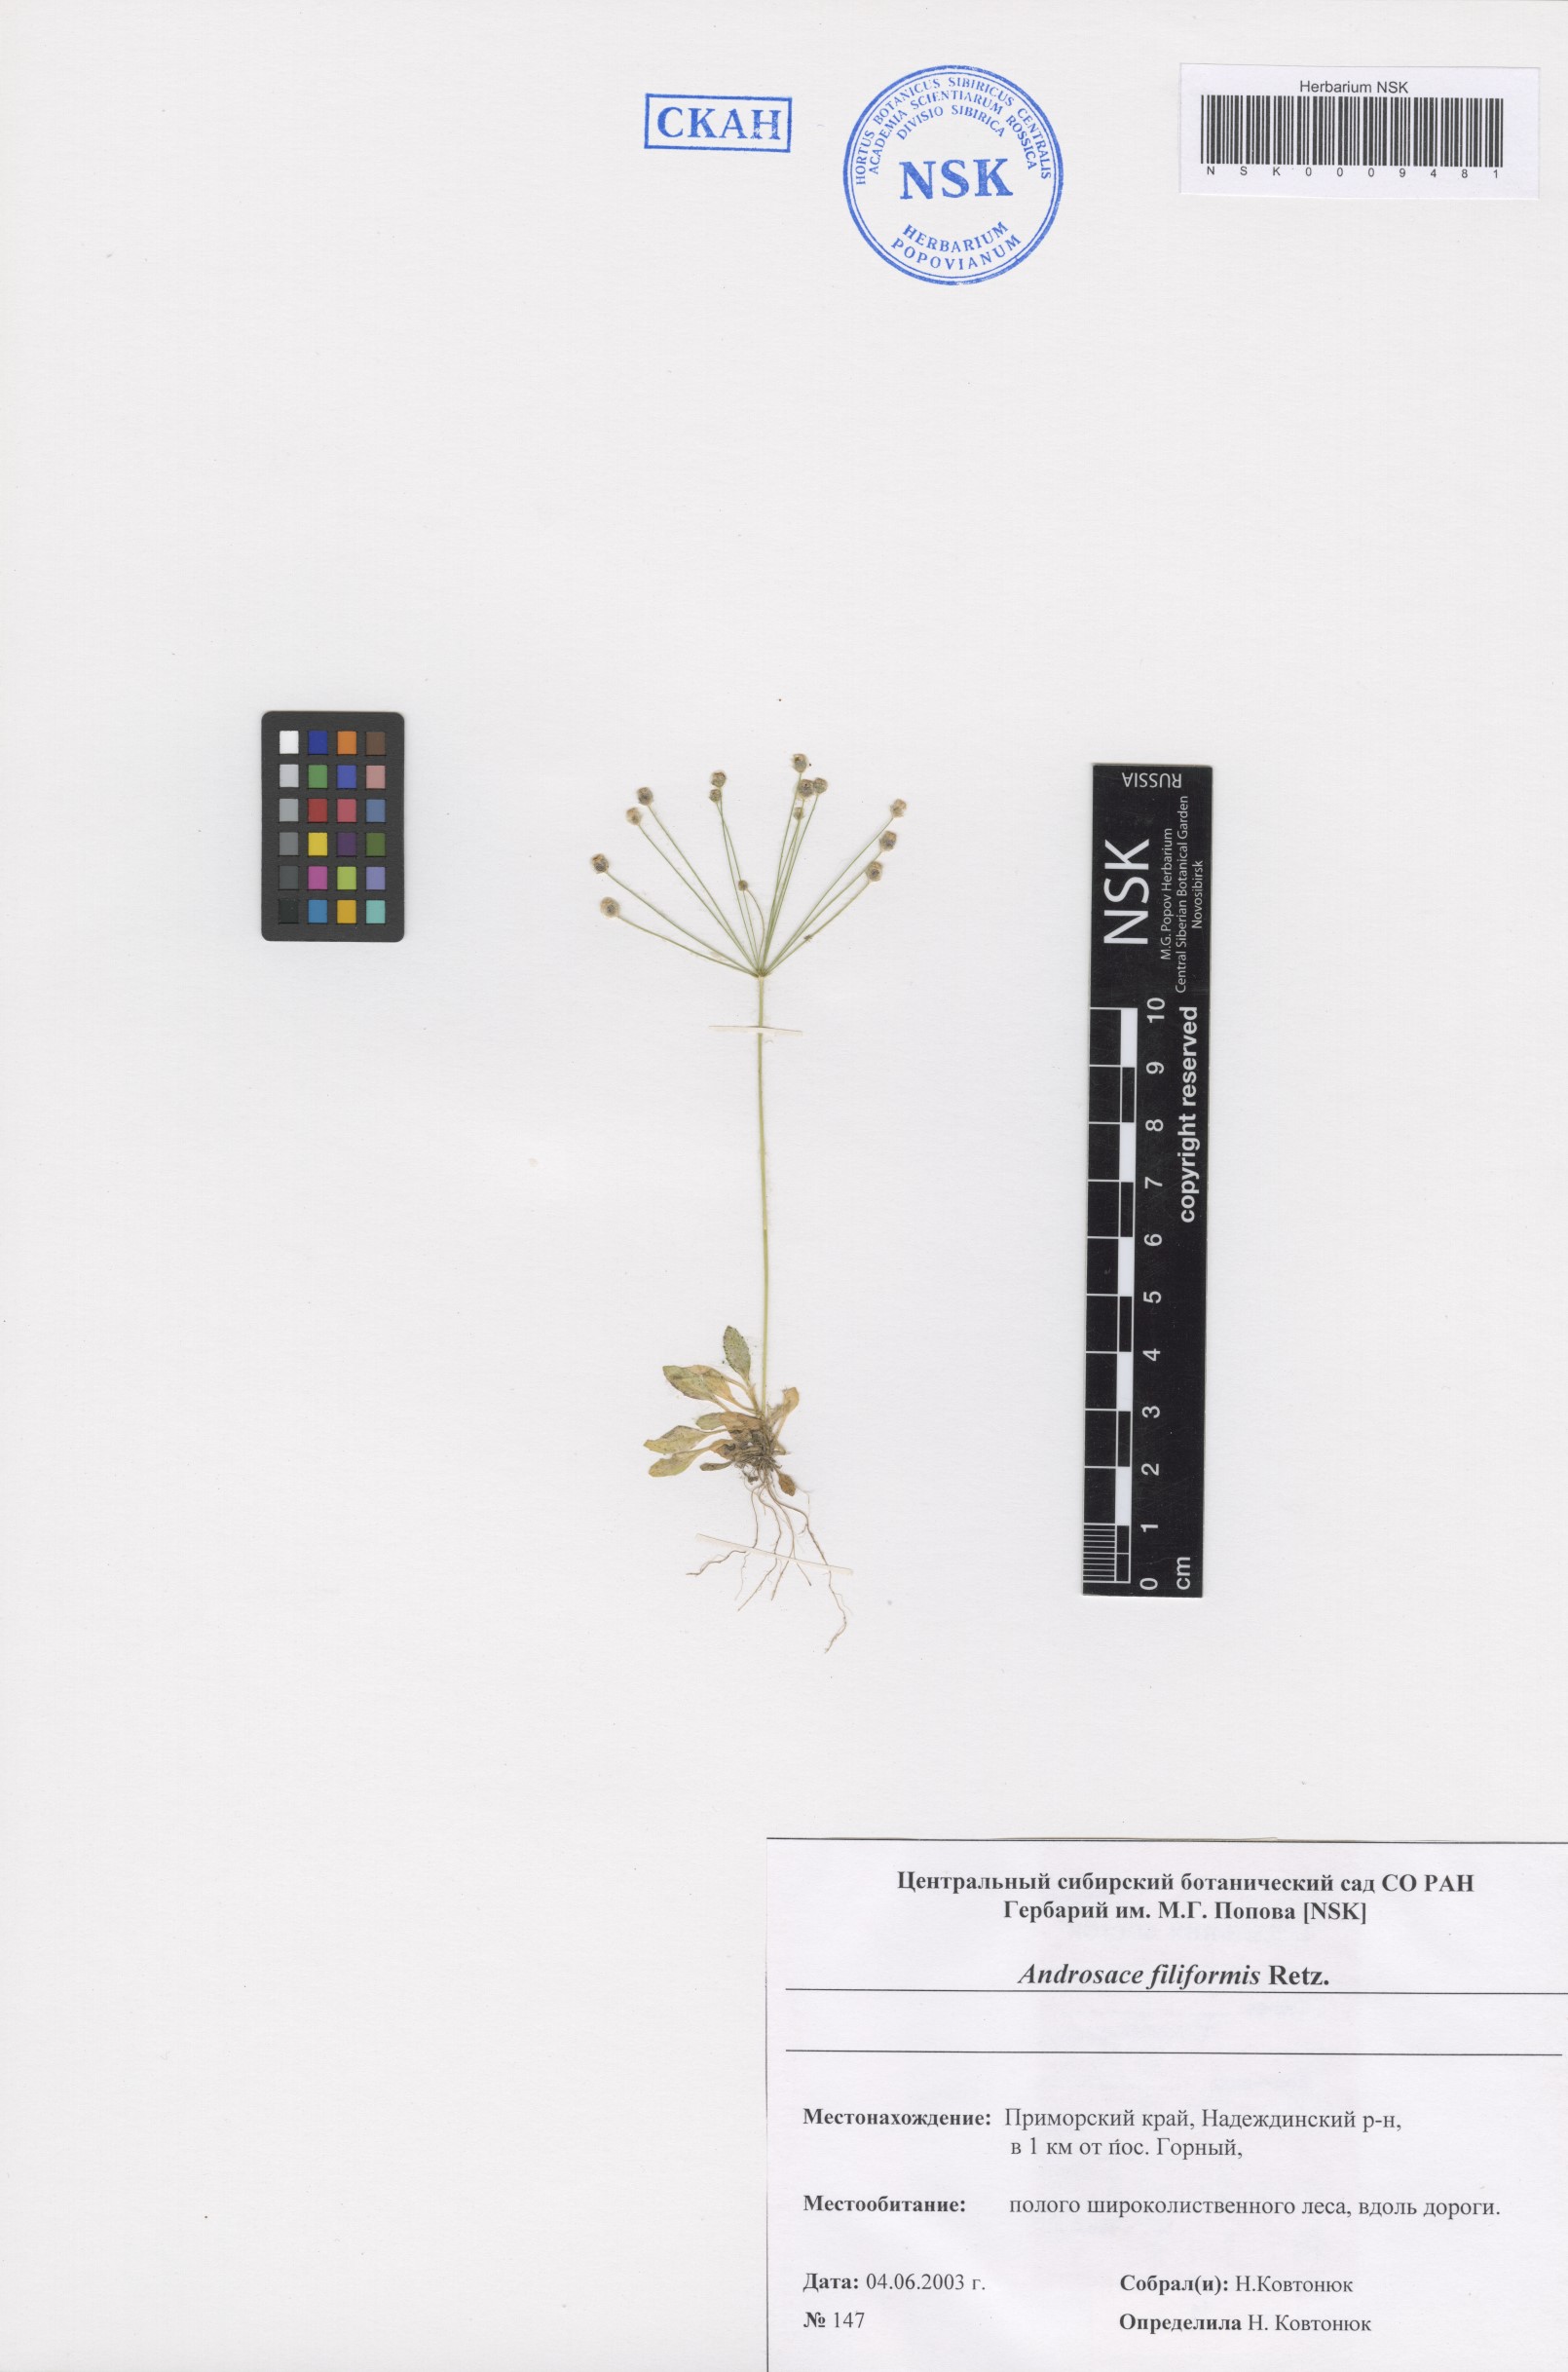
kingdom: Plantae
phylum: Tracheophyta
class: Magnoliopsida
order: Ericales
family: Primulaceae
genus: Androsace
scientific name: Androsace filiformis
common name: Filiform rock jasmine
